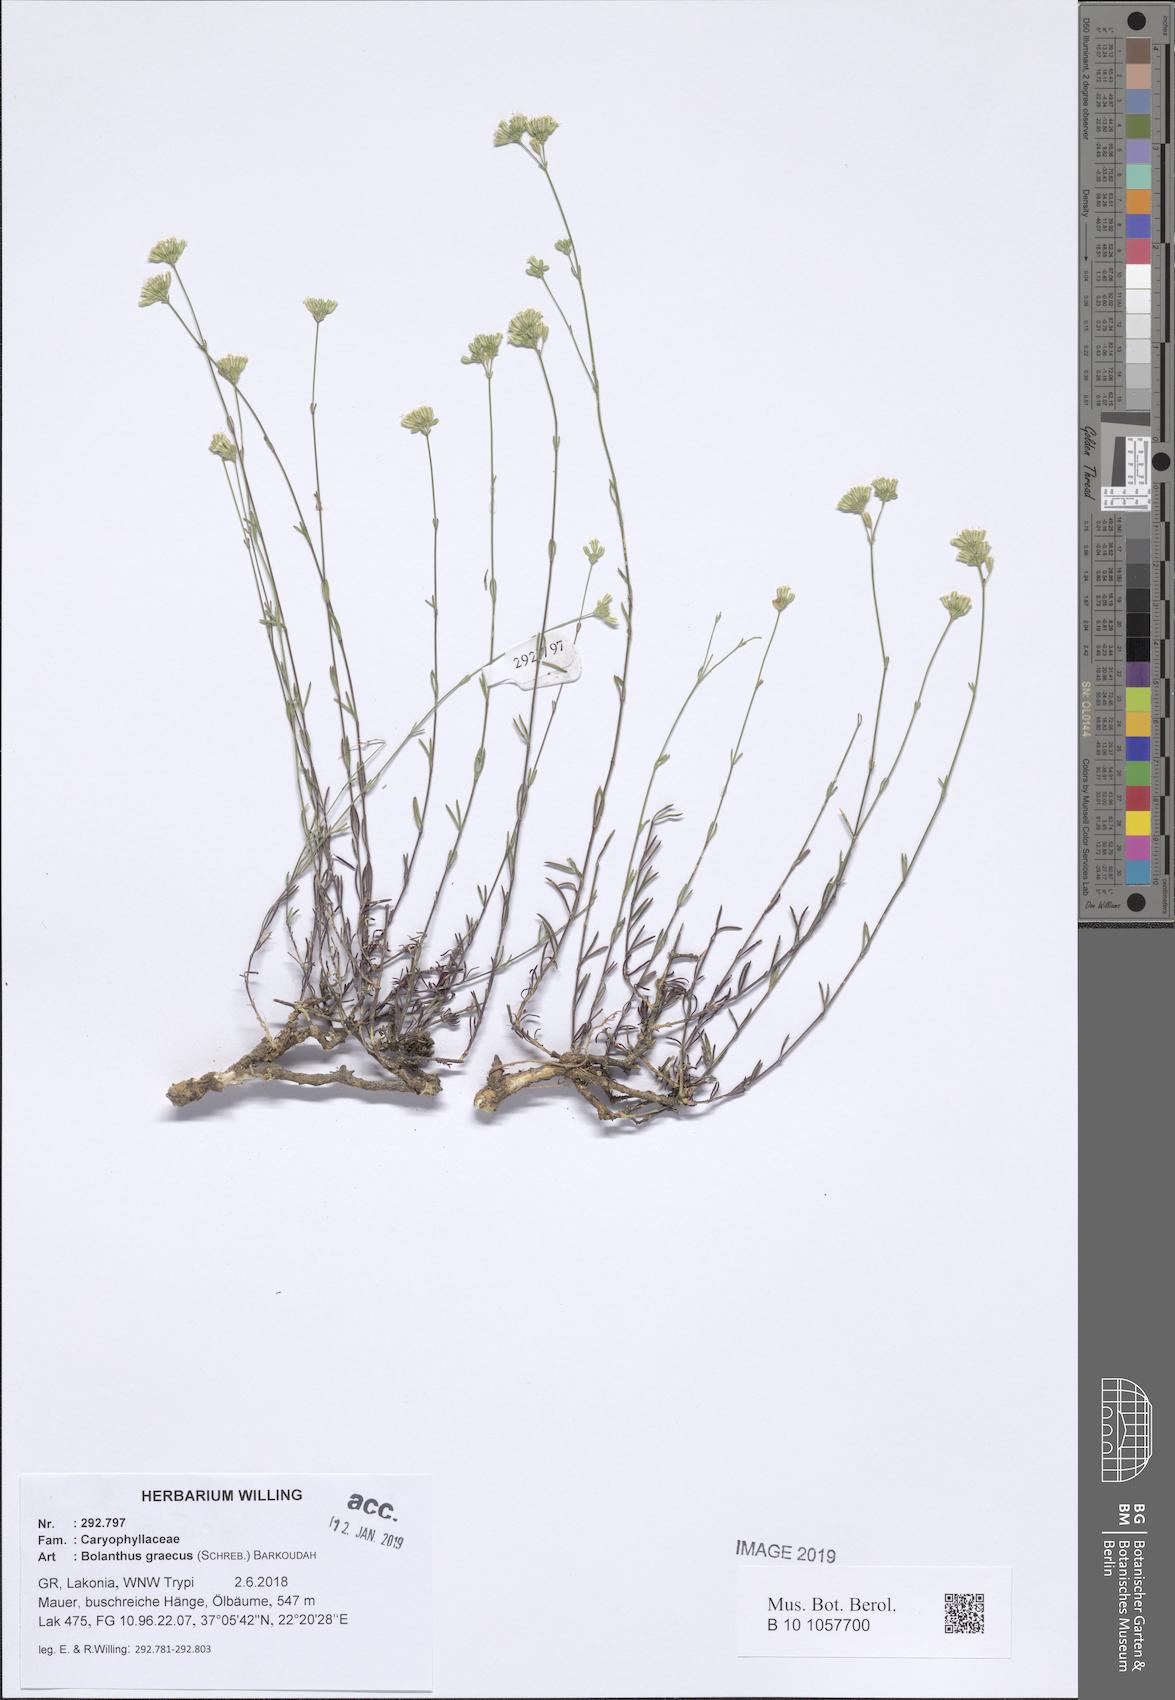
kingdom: Plantae
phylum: Tracheophyta
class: Magnoliopsida
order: Caryophyllales
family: Caryophyllaceae
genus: Graecobolanthus
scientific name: Graecobolanthus graecus
